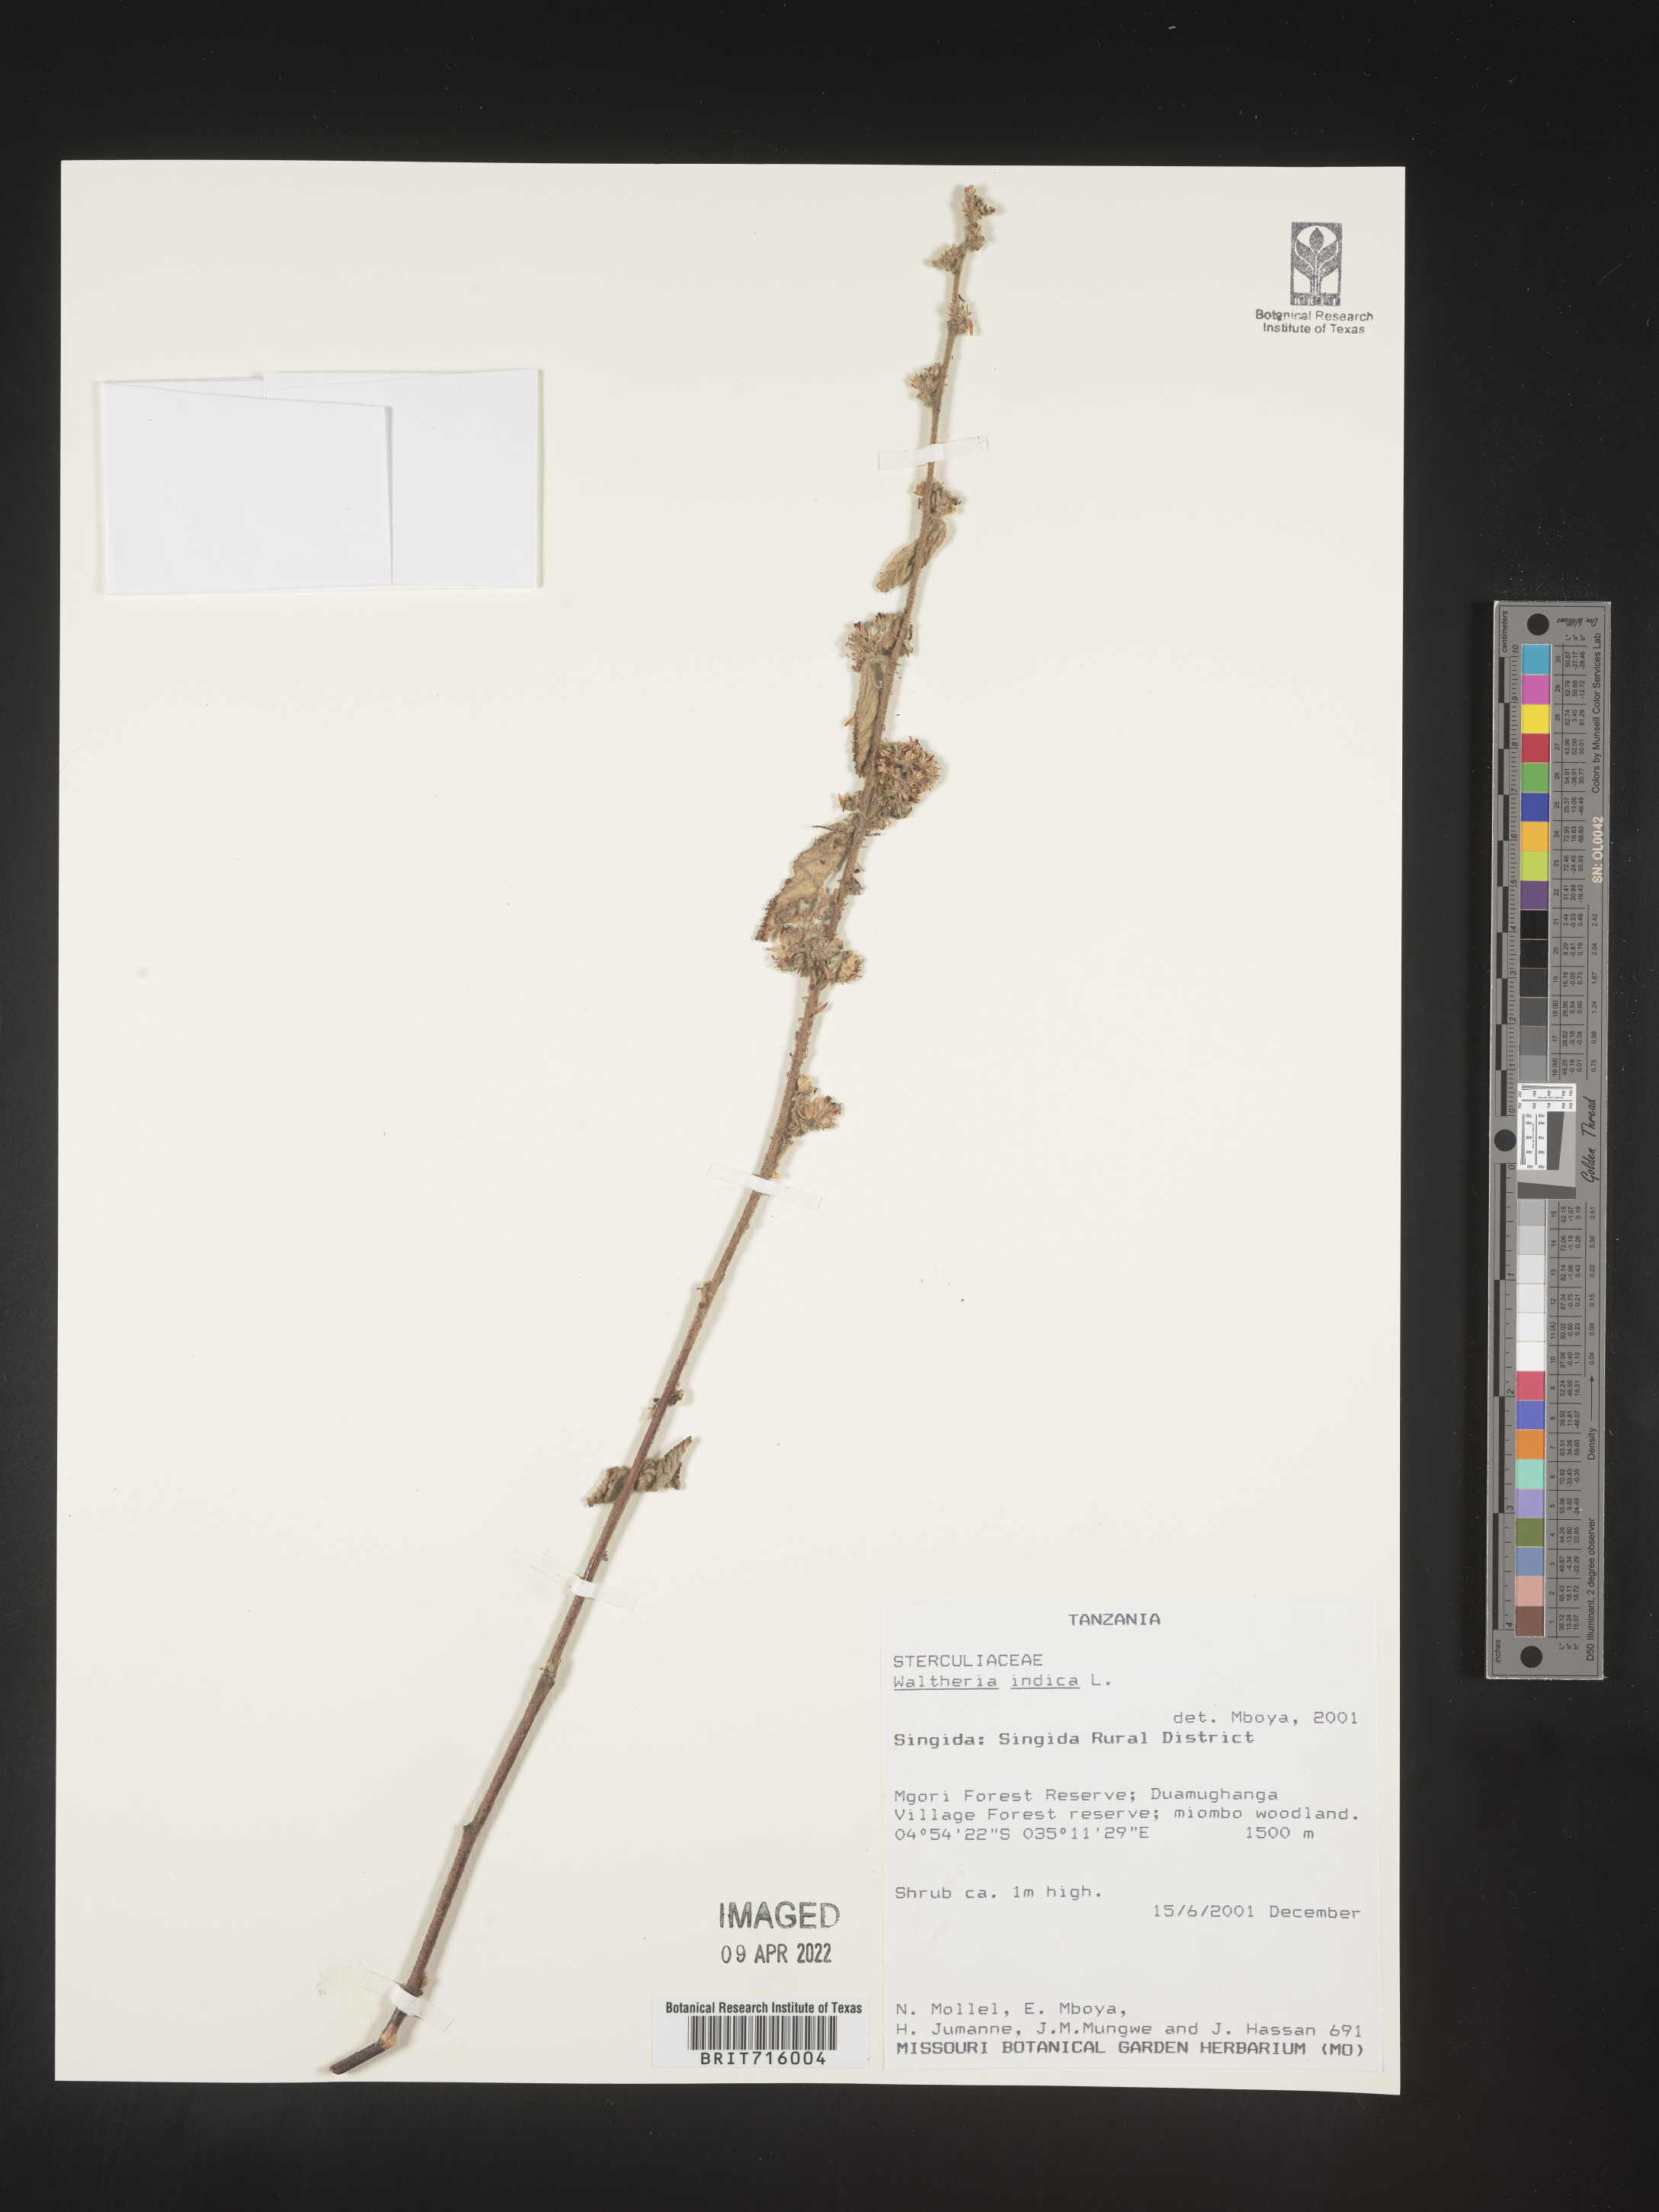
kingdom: Plantae
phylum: Tracheophyta
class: Magnoliopsida
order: Malvales
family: Malvaceae
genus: Waltheria
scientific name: Waltheria
